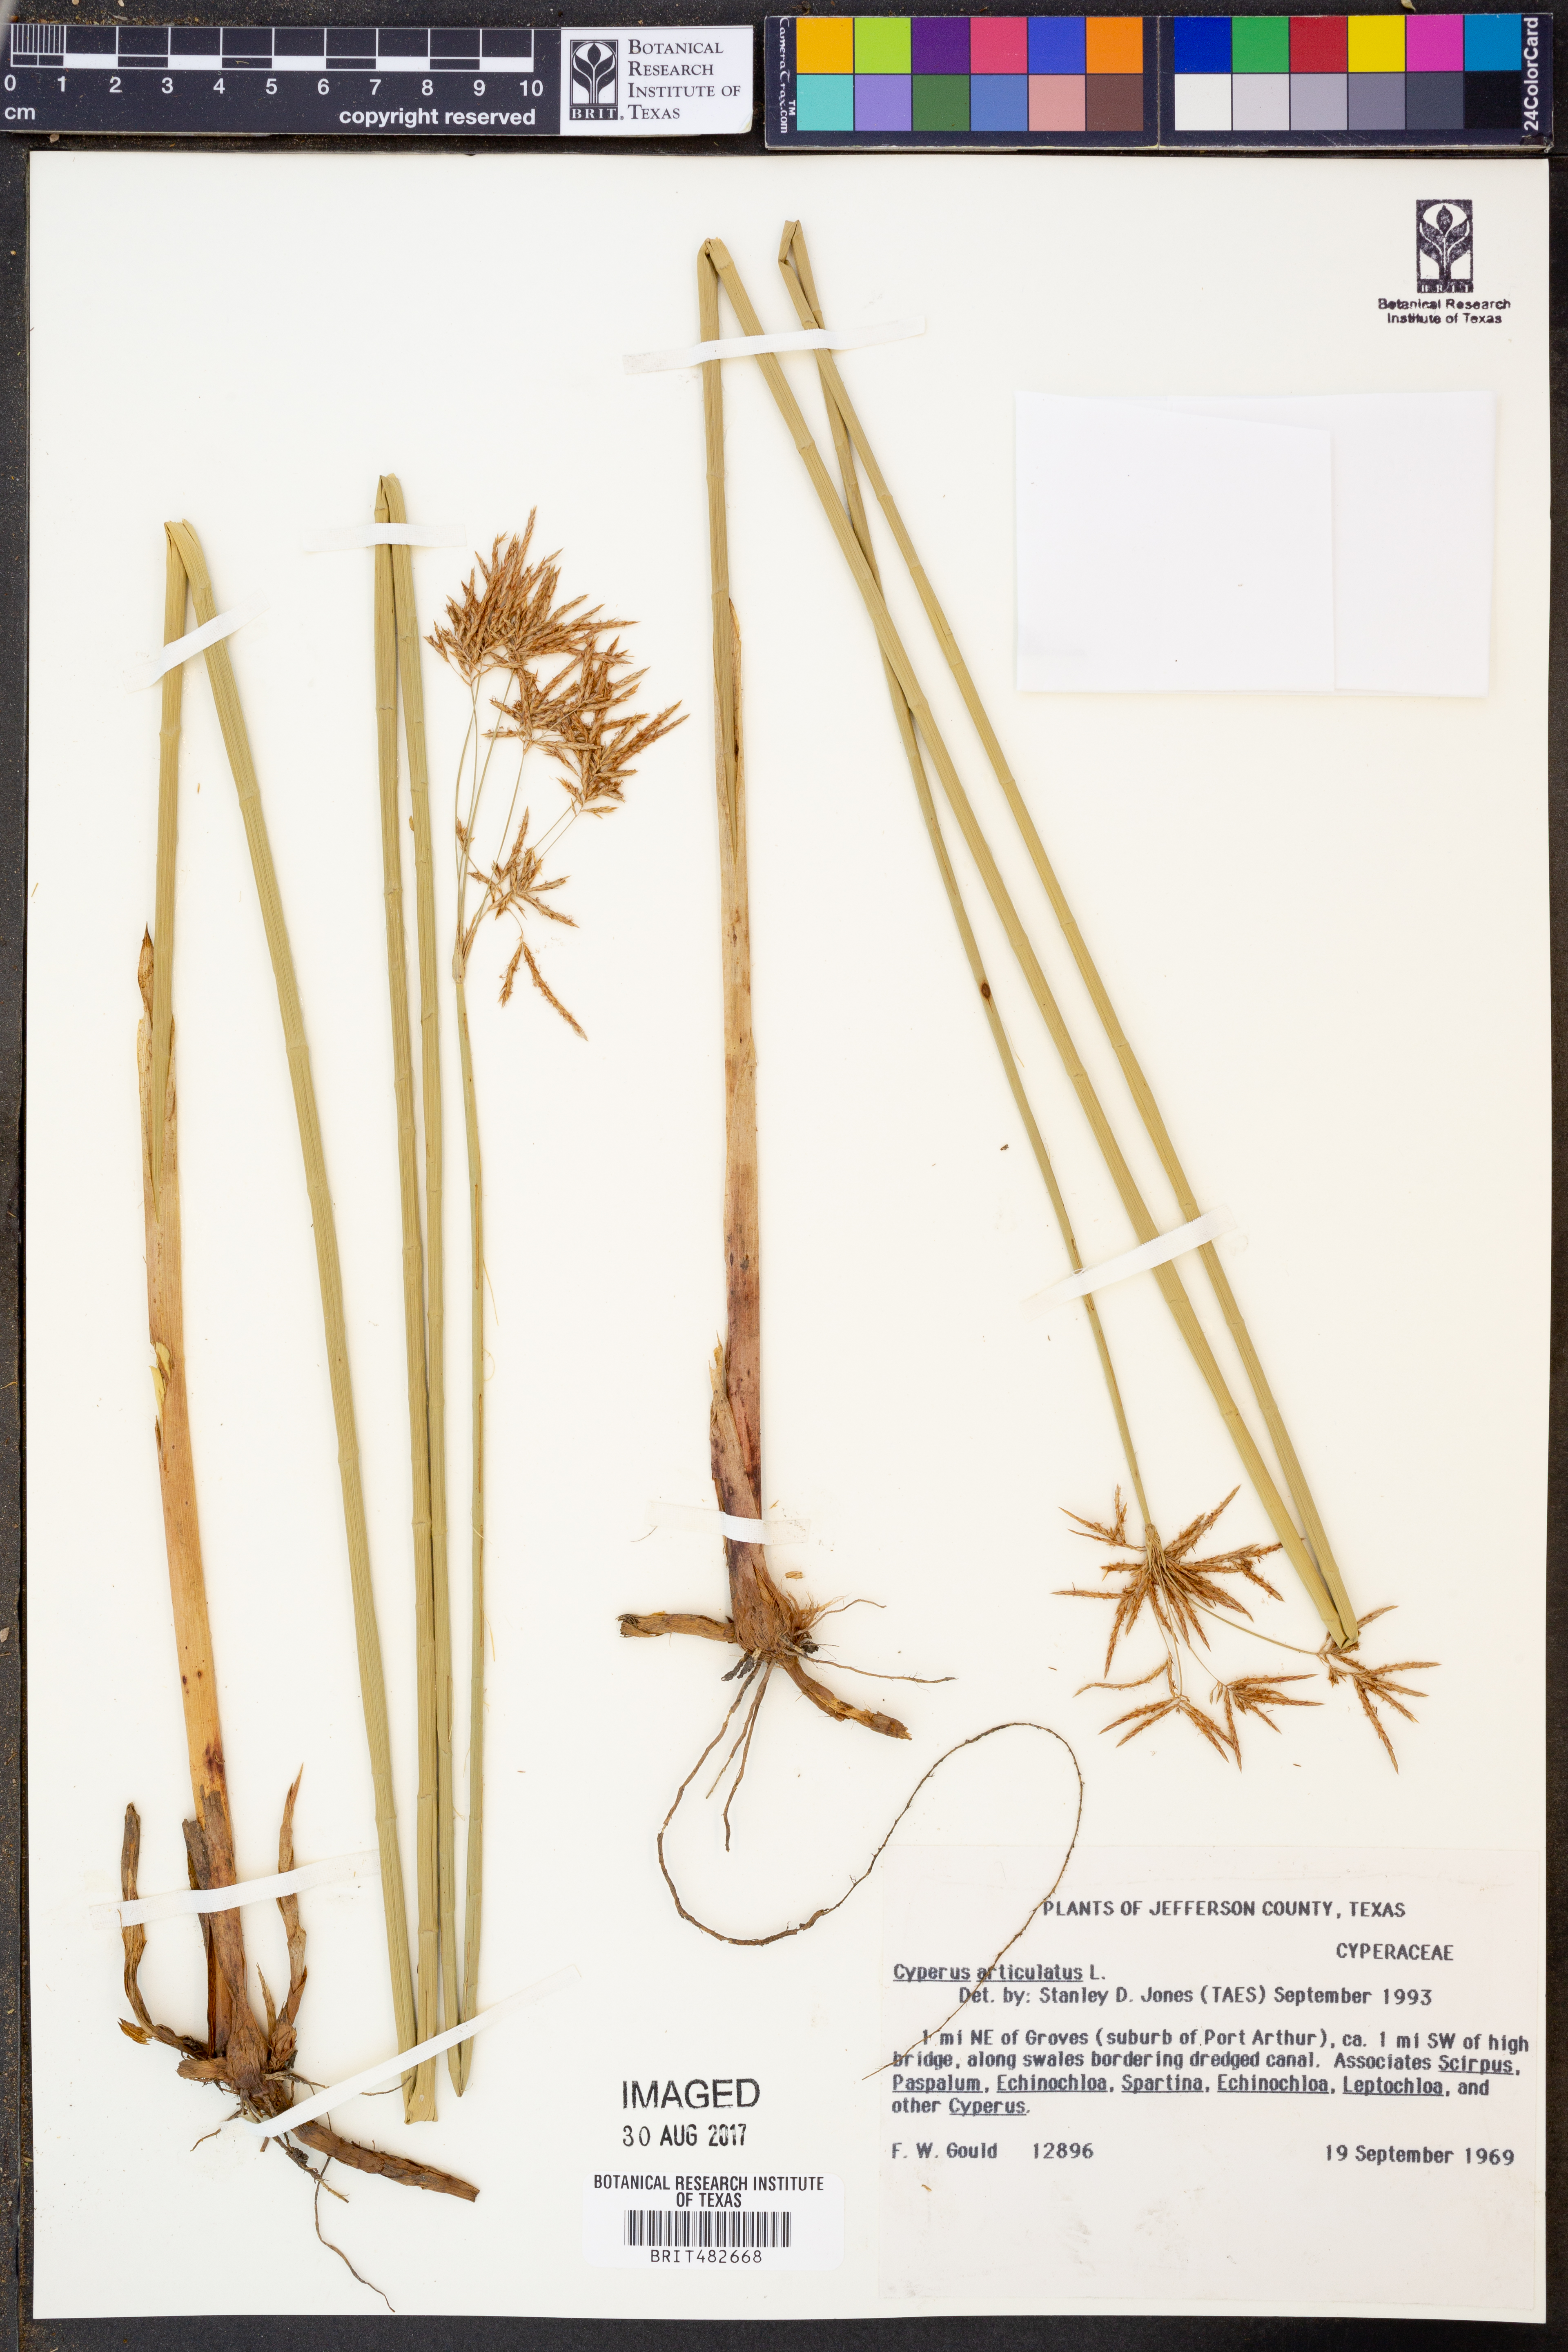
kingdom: Plantae
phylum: Tracheophyta
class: Liliopsida
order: Poales
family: Cyperaceae
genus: Cyperus
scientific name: Cyperus articulatus
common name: Jointed flatsedge
